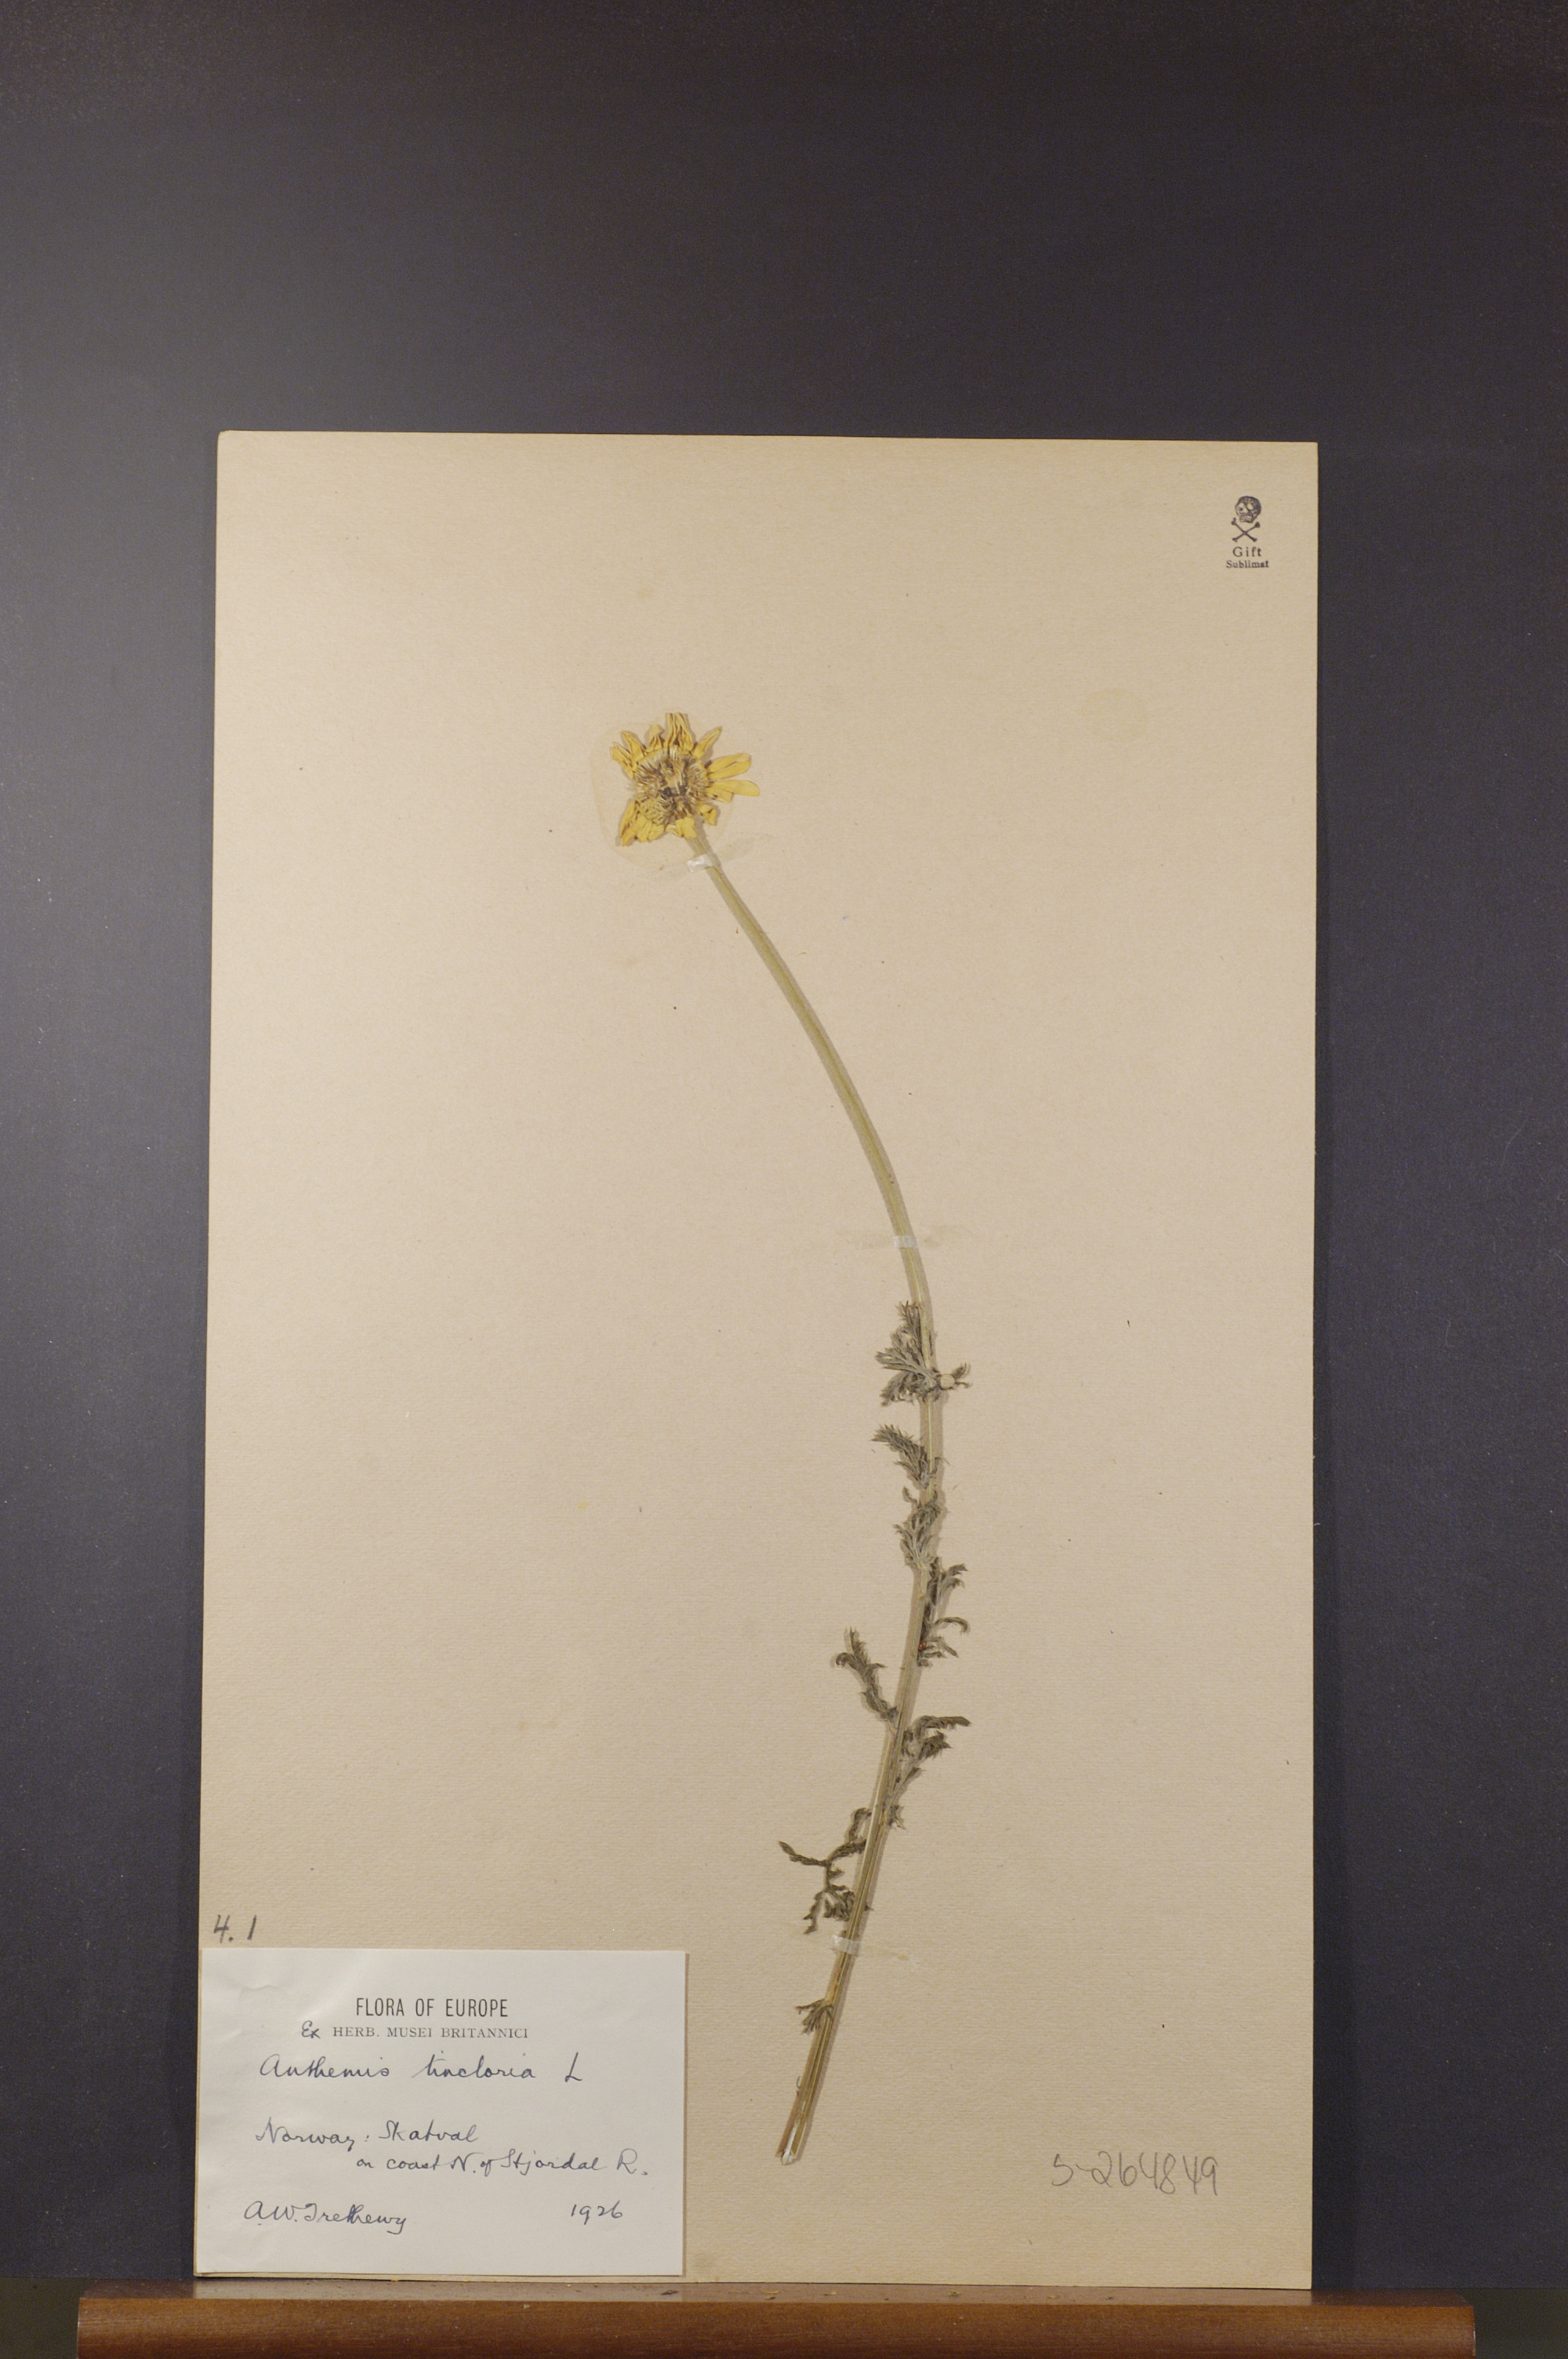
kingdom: Plantae
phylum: Tracheophyta
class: Magnoliopsida
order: Asterales
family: Asteraceae
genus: Cota
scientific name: Cota tinctoria
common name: Golden chamomile
